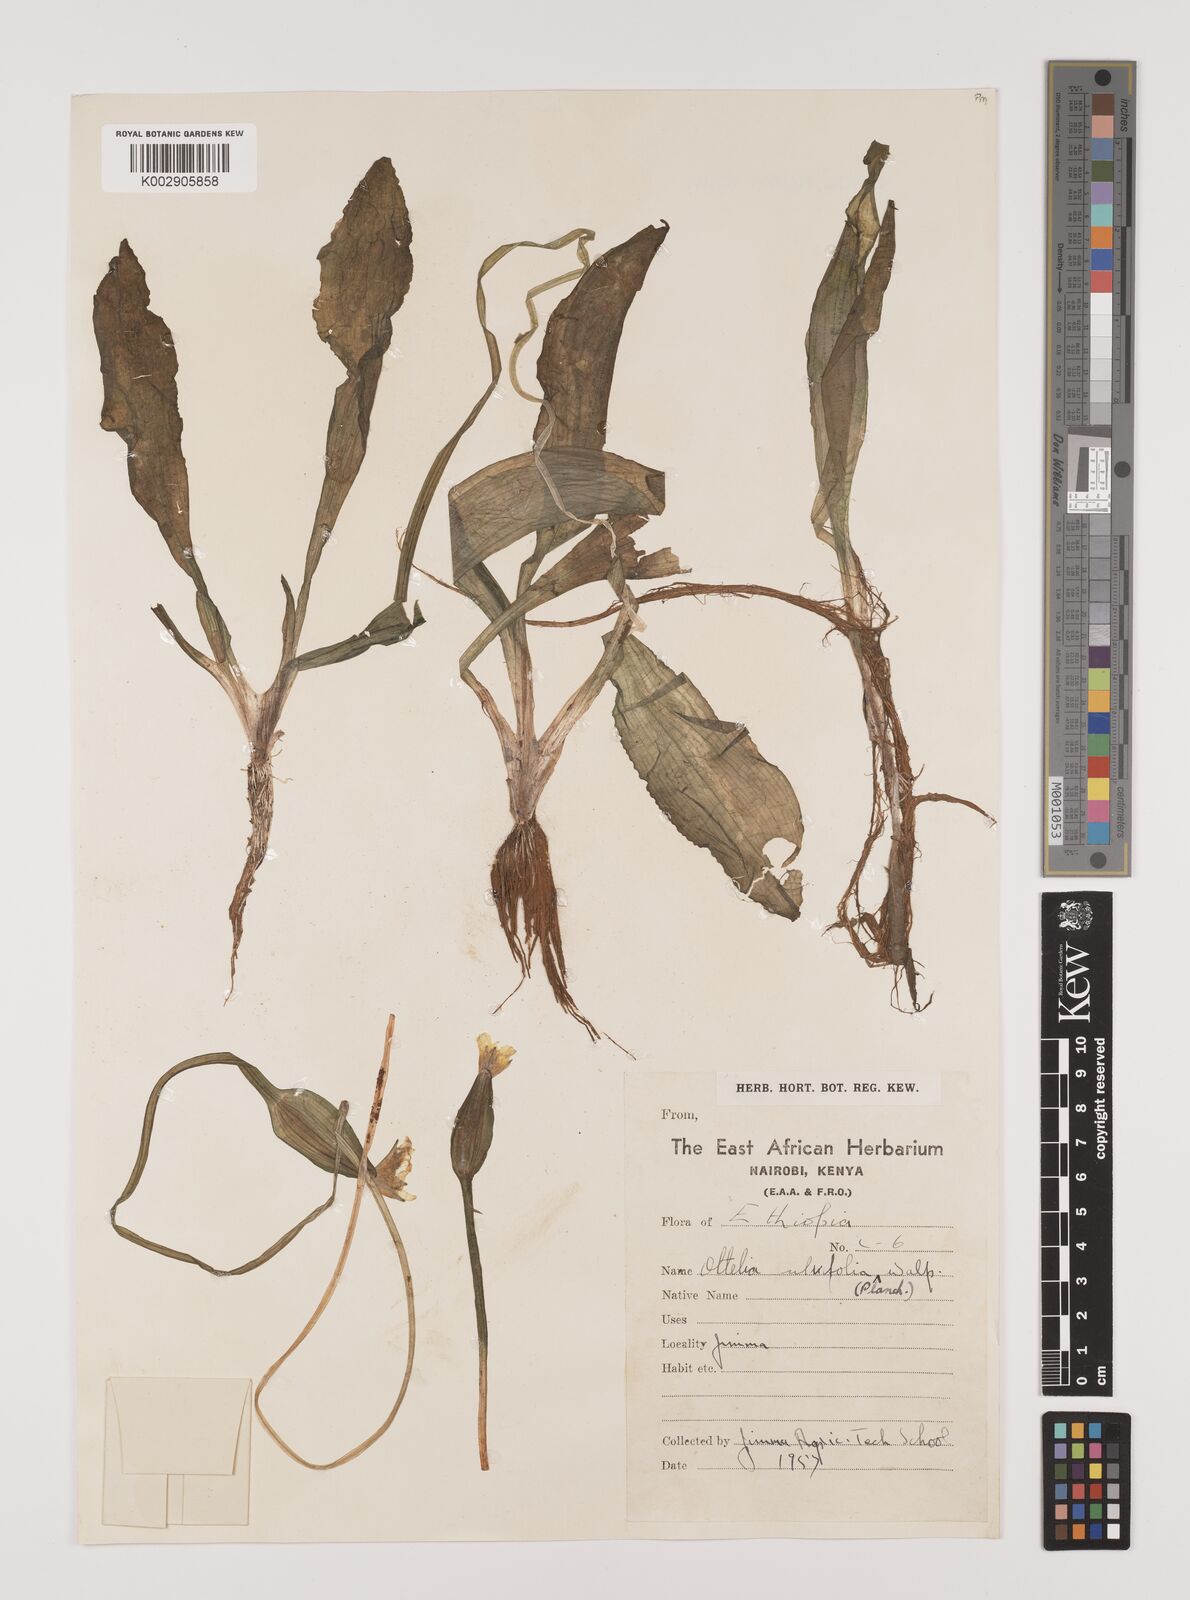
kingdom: Plantae
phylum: Tracheophyta
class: Liliopsida
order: Alismatales
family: Hydrocharitaceae
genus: Ottelia
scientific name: Ottelia ulvifolia
